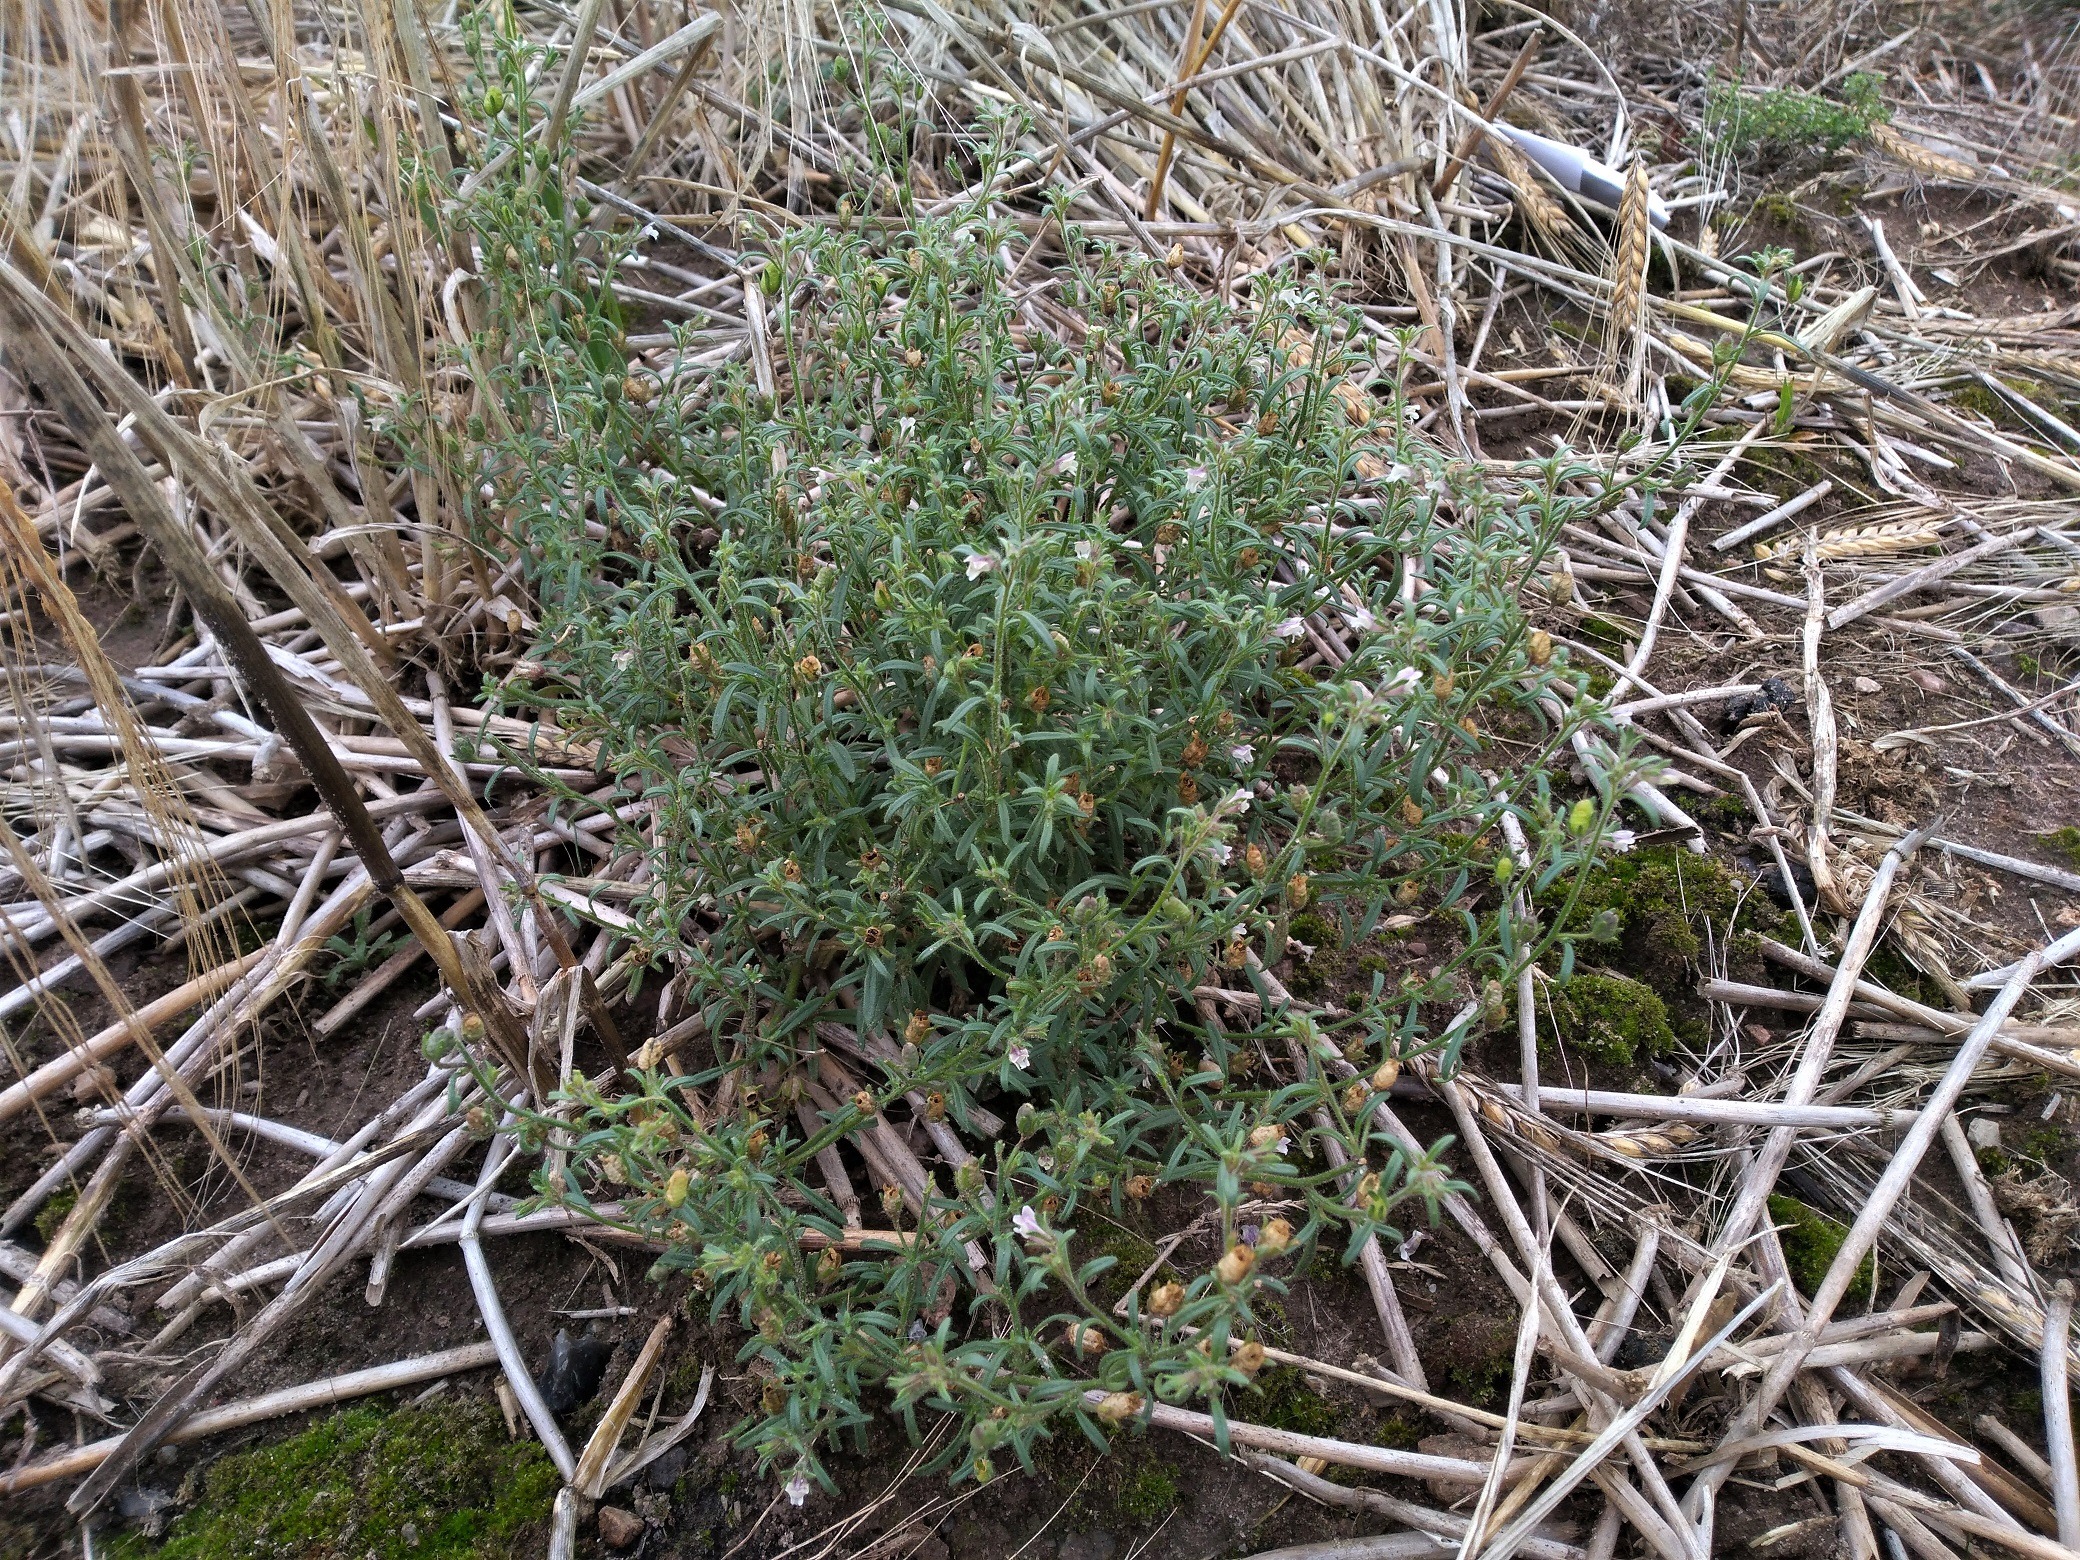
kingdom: Plantae
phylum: Tracheophyta
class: Magnoliopsida
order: Lamiales
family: Plantaginaceae
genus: Chaenorhinum
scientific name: Chaenorhinum minus
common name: Liden torskemund
